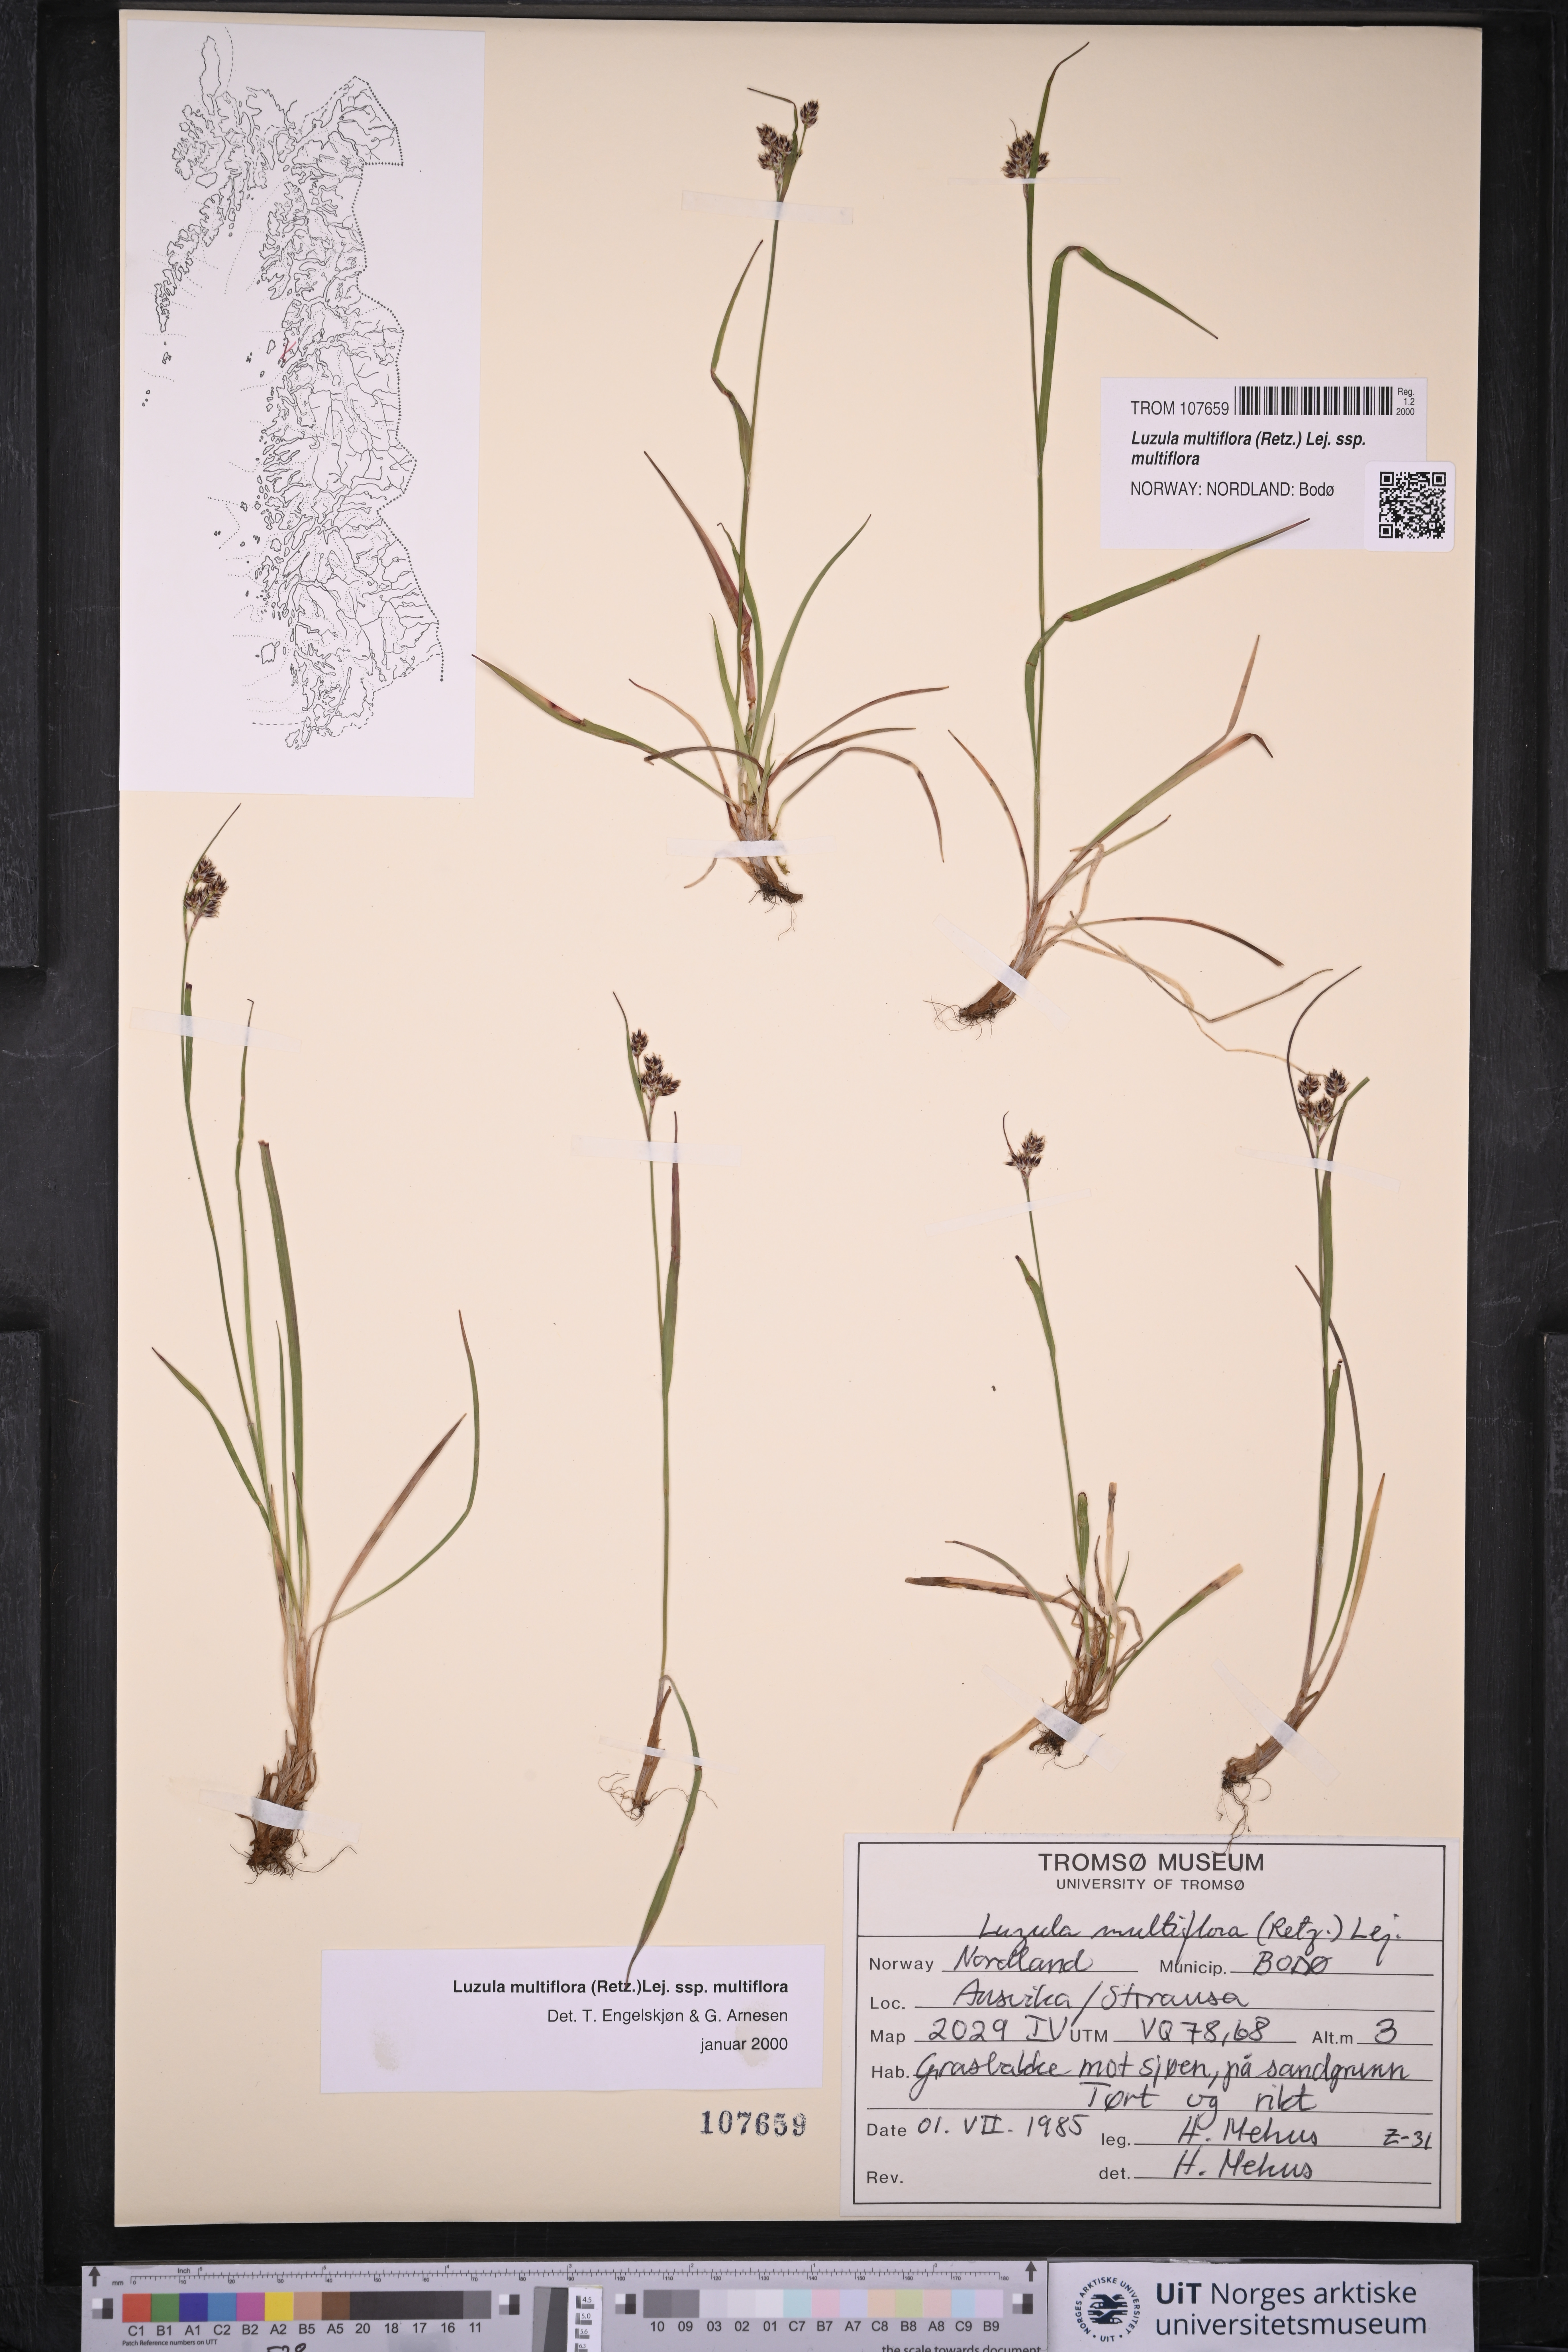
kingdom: Plantae
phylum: Tracheophyta
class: Liliopsida
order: Poales
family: Juncaceae
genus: Luzula
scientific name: Luzula multiflora
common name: Heath wood-rush
